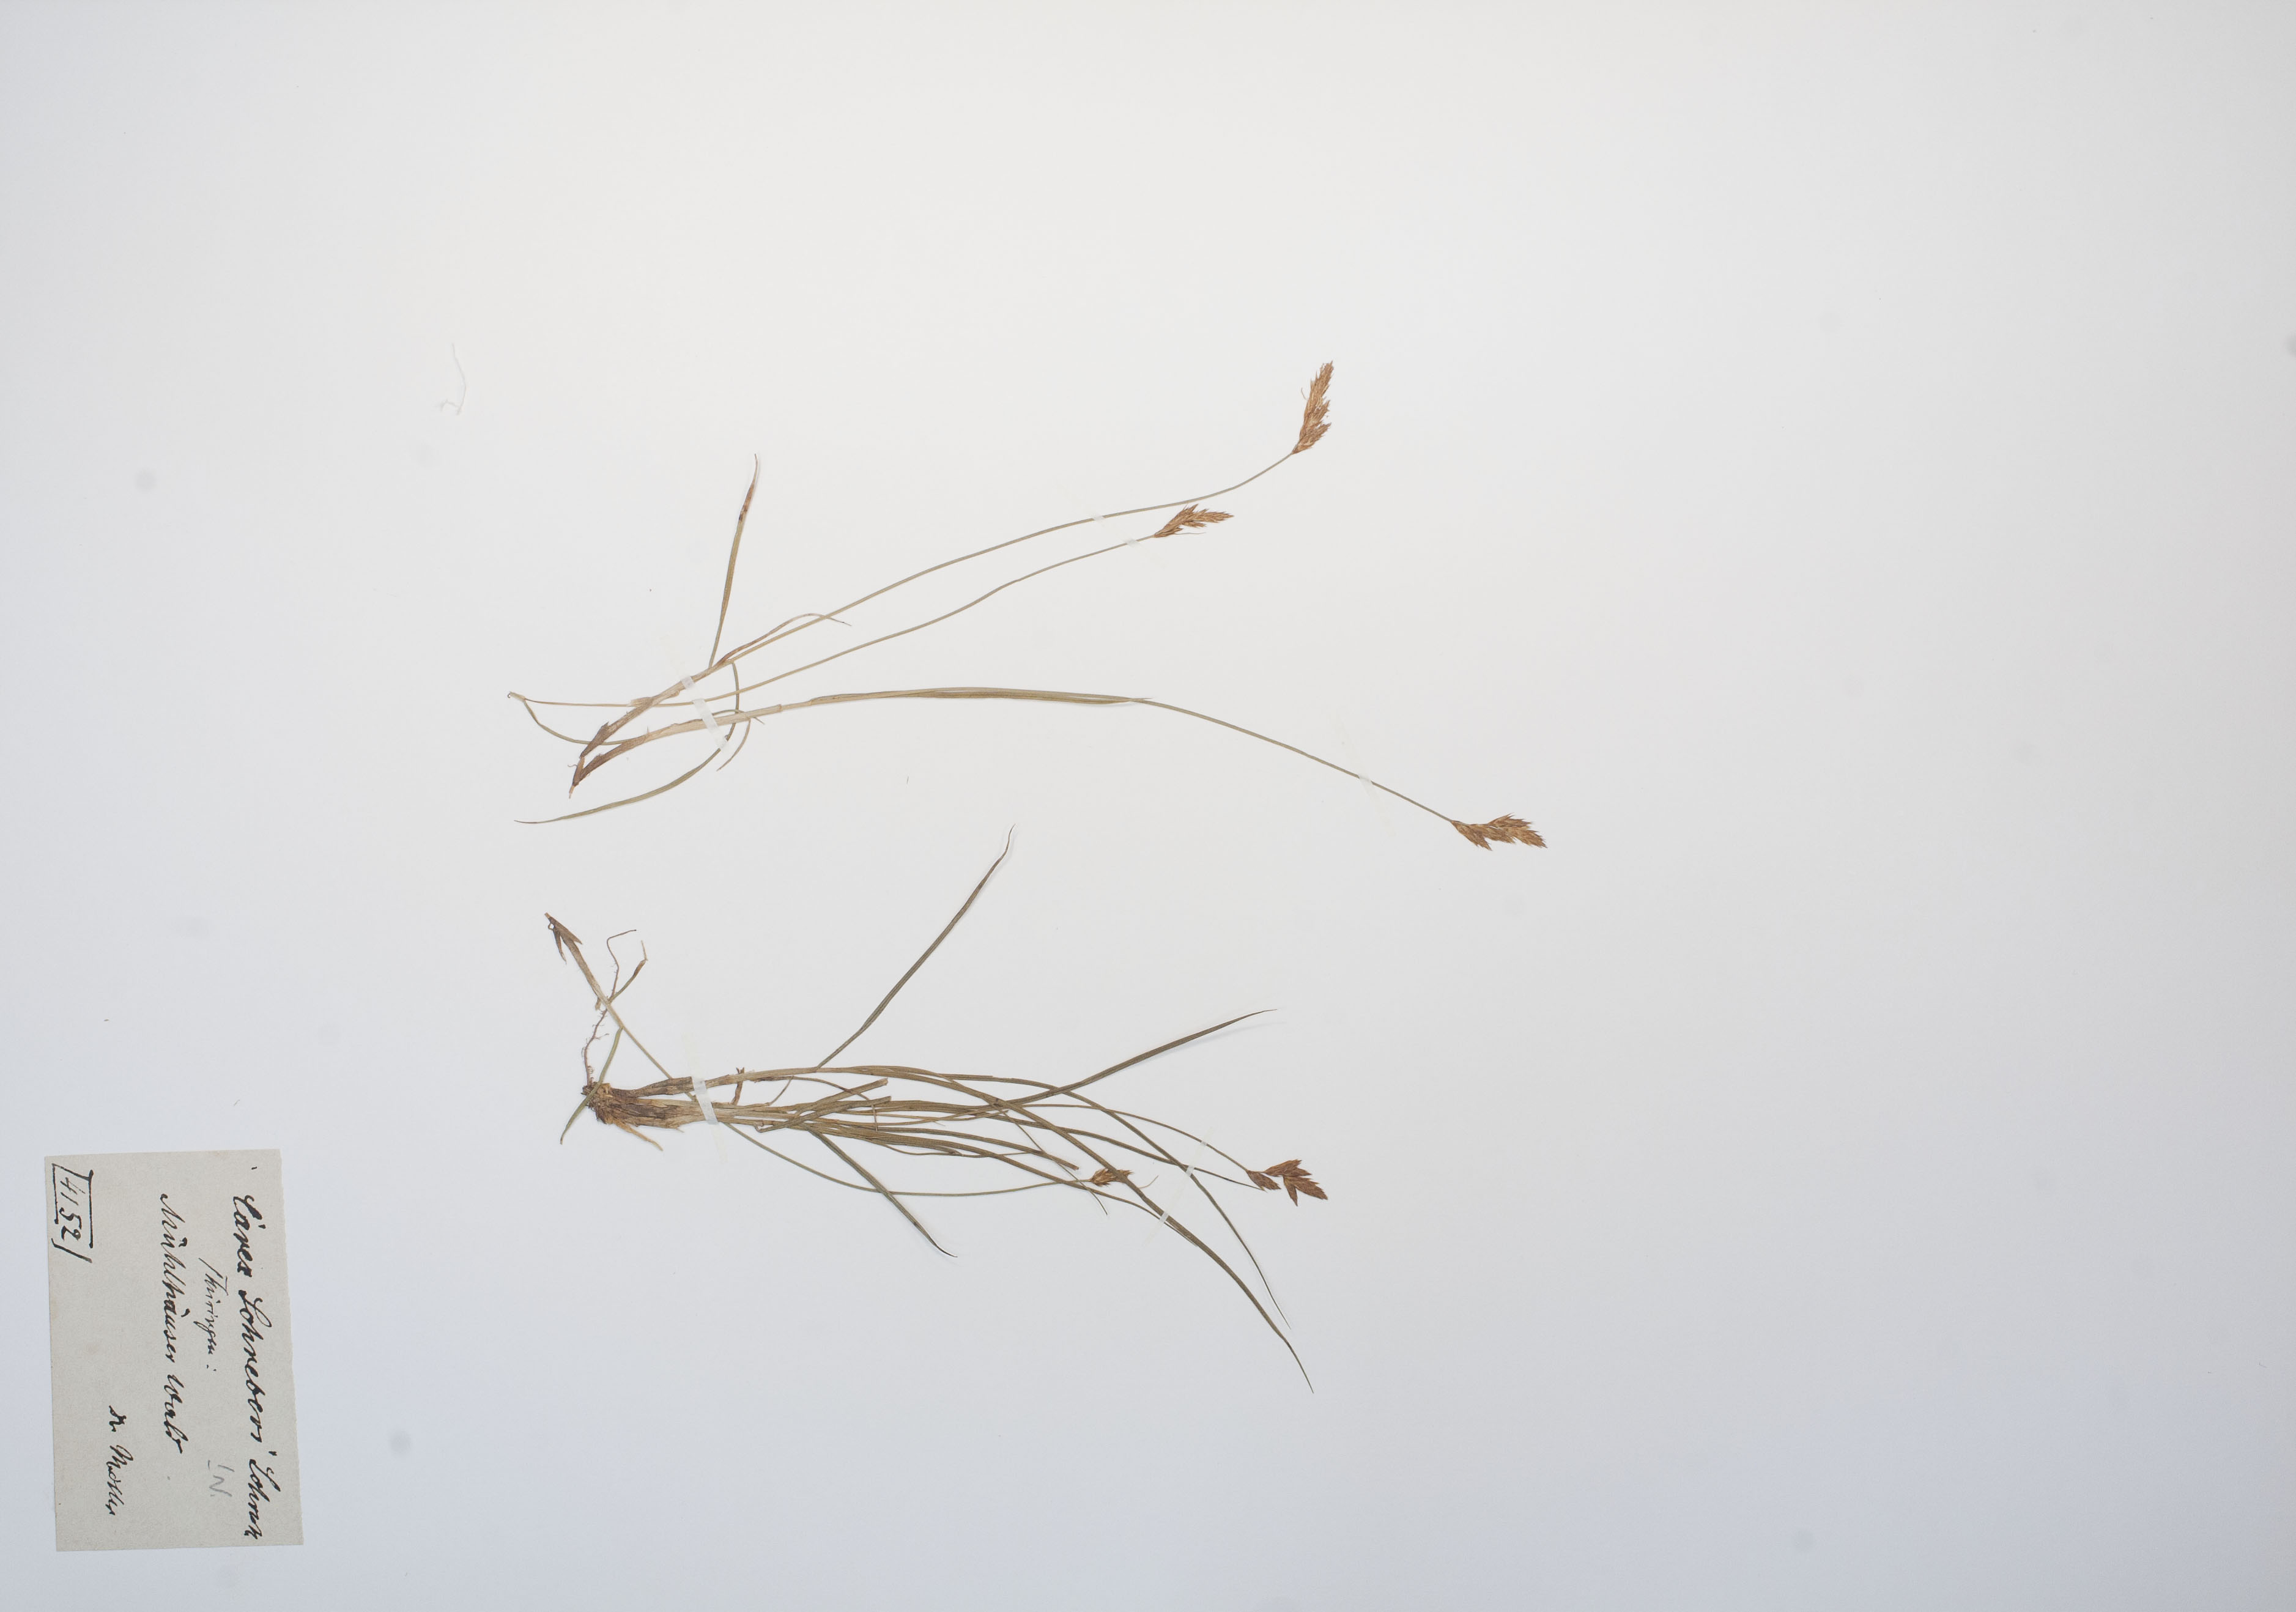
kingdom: Plantae
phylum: Tracheophyta
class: Liliopsida
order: Poales
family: Cyperaceae
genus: Carex
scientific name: Carex praecox
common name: Early sedge
